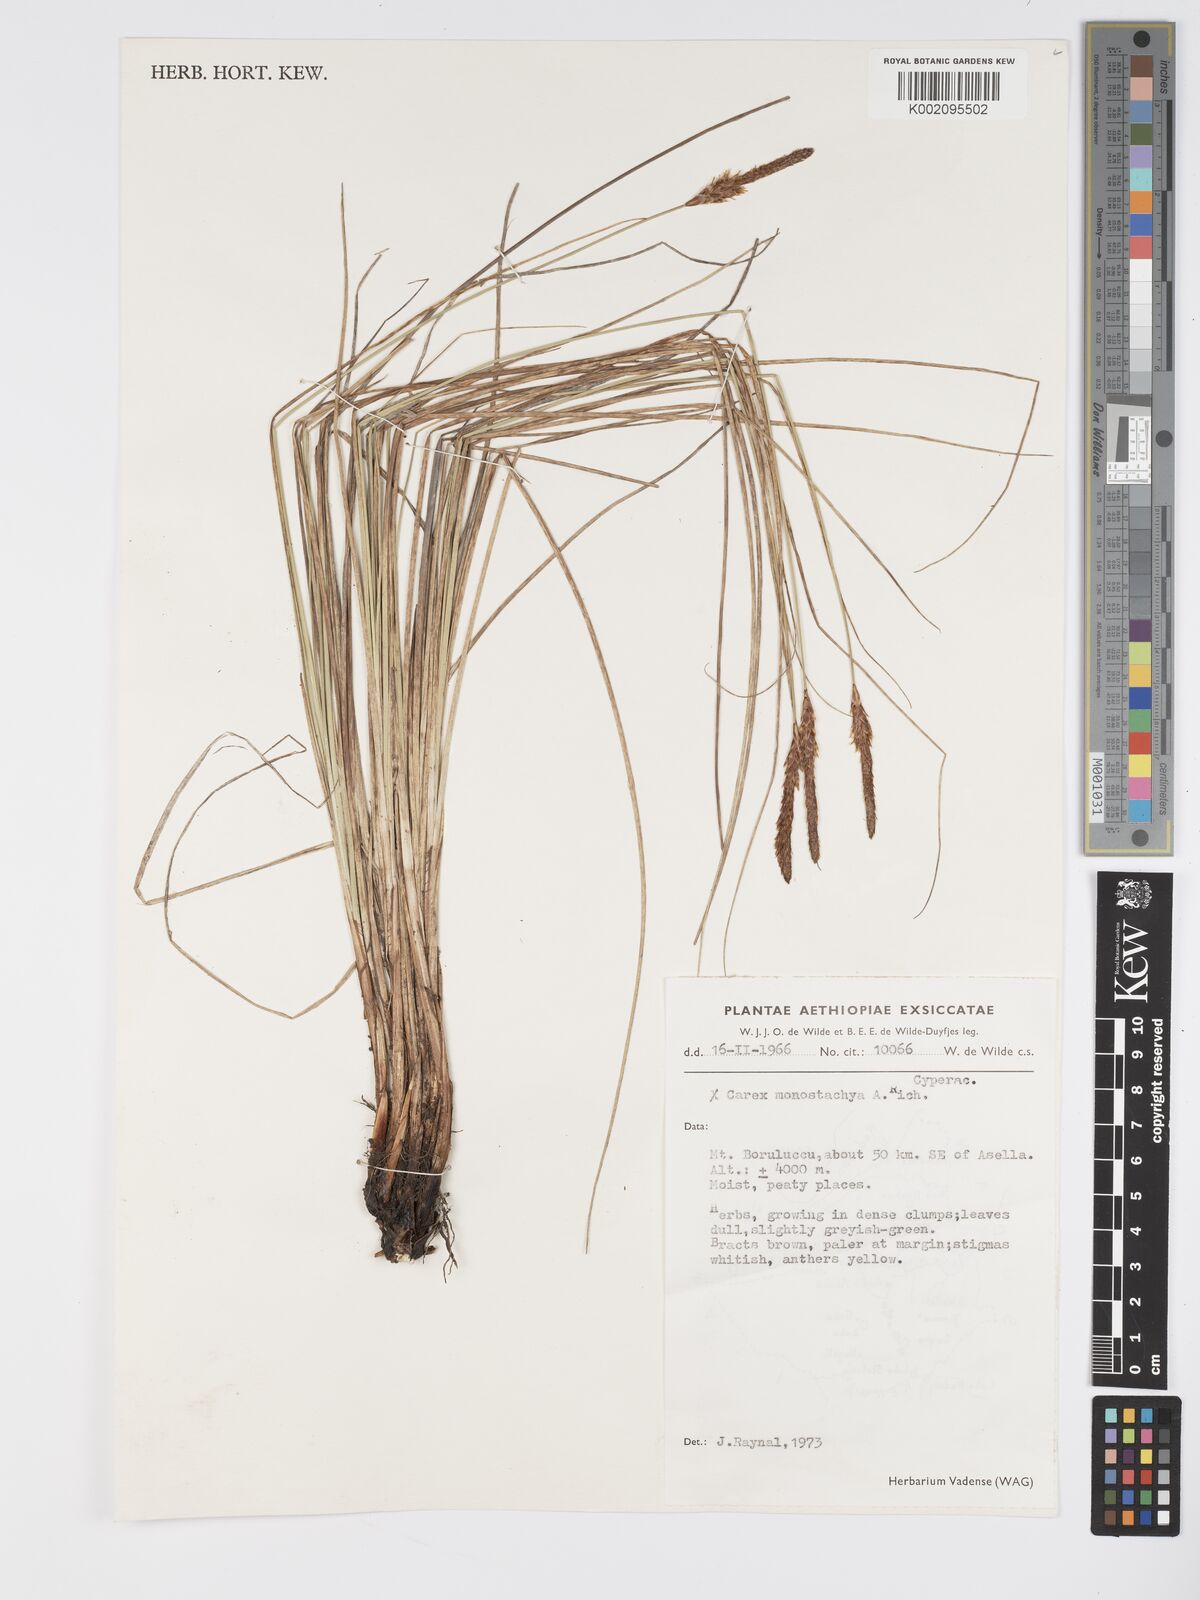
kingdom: Plantae
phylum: Tracheophyta
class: Liliopsida
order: Poales
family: Cyperaceae
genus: Carex
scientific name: Carex monostachya
